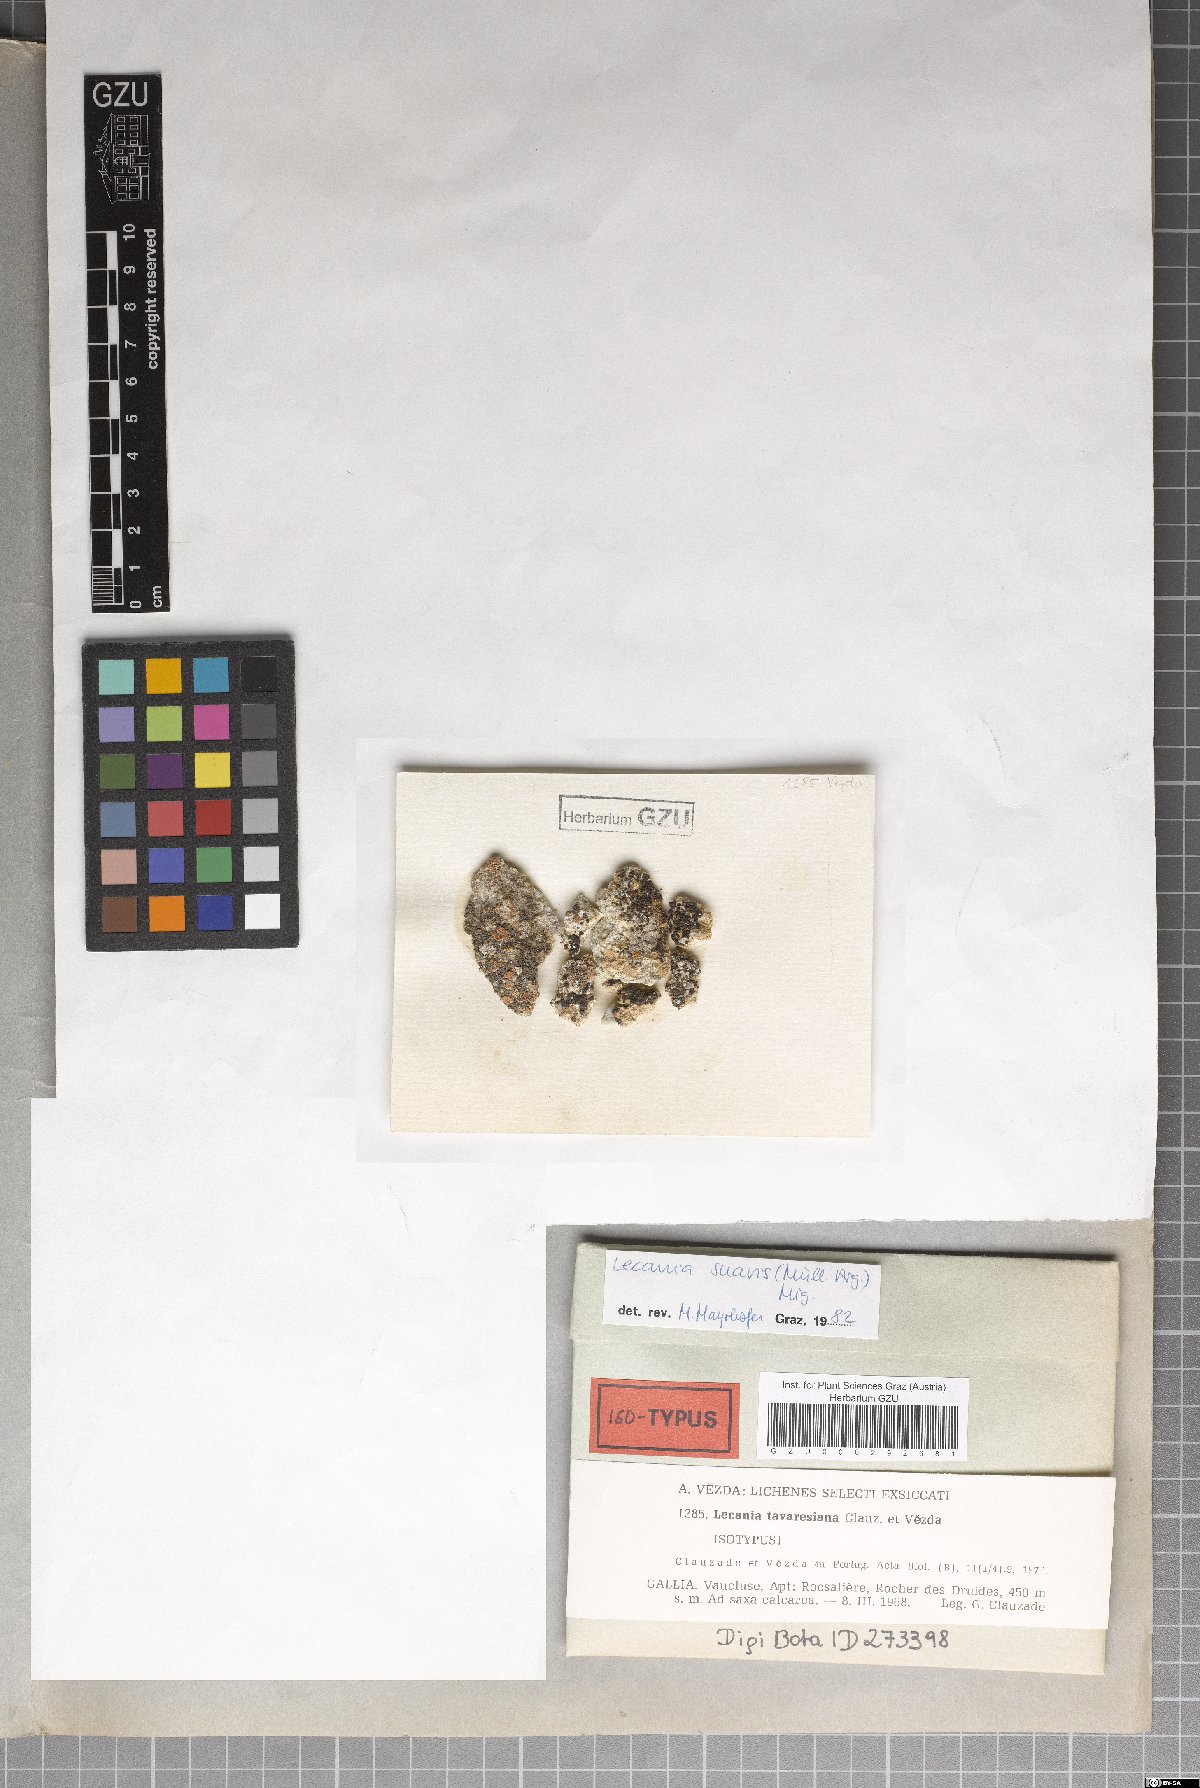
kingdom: Fungi
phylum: Ascomycota
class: Lecanoromycetes
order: Lecanorales
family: Ramalinaceae
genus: Lecania
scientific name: Lecania suavis
